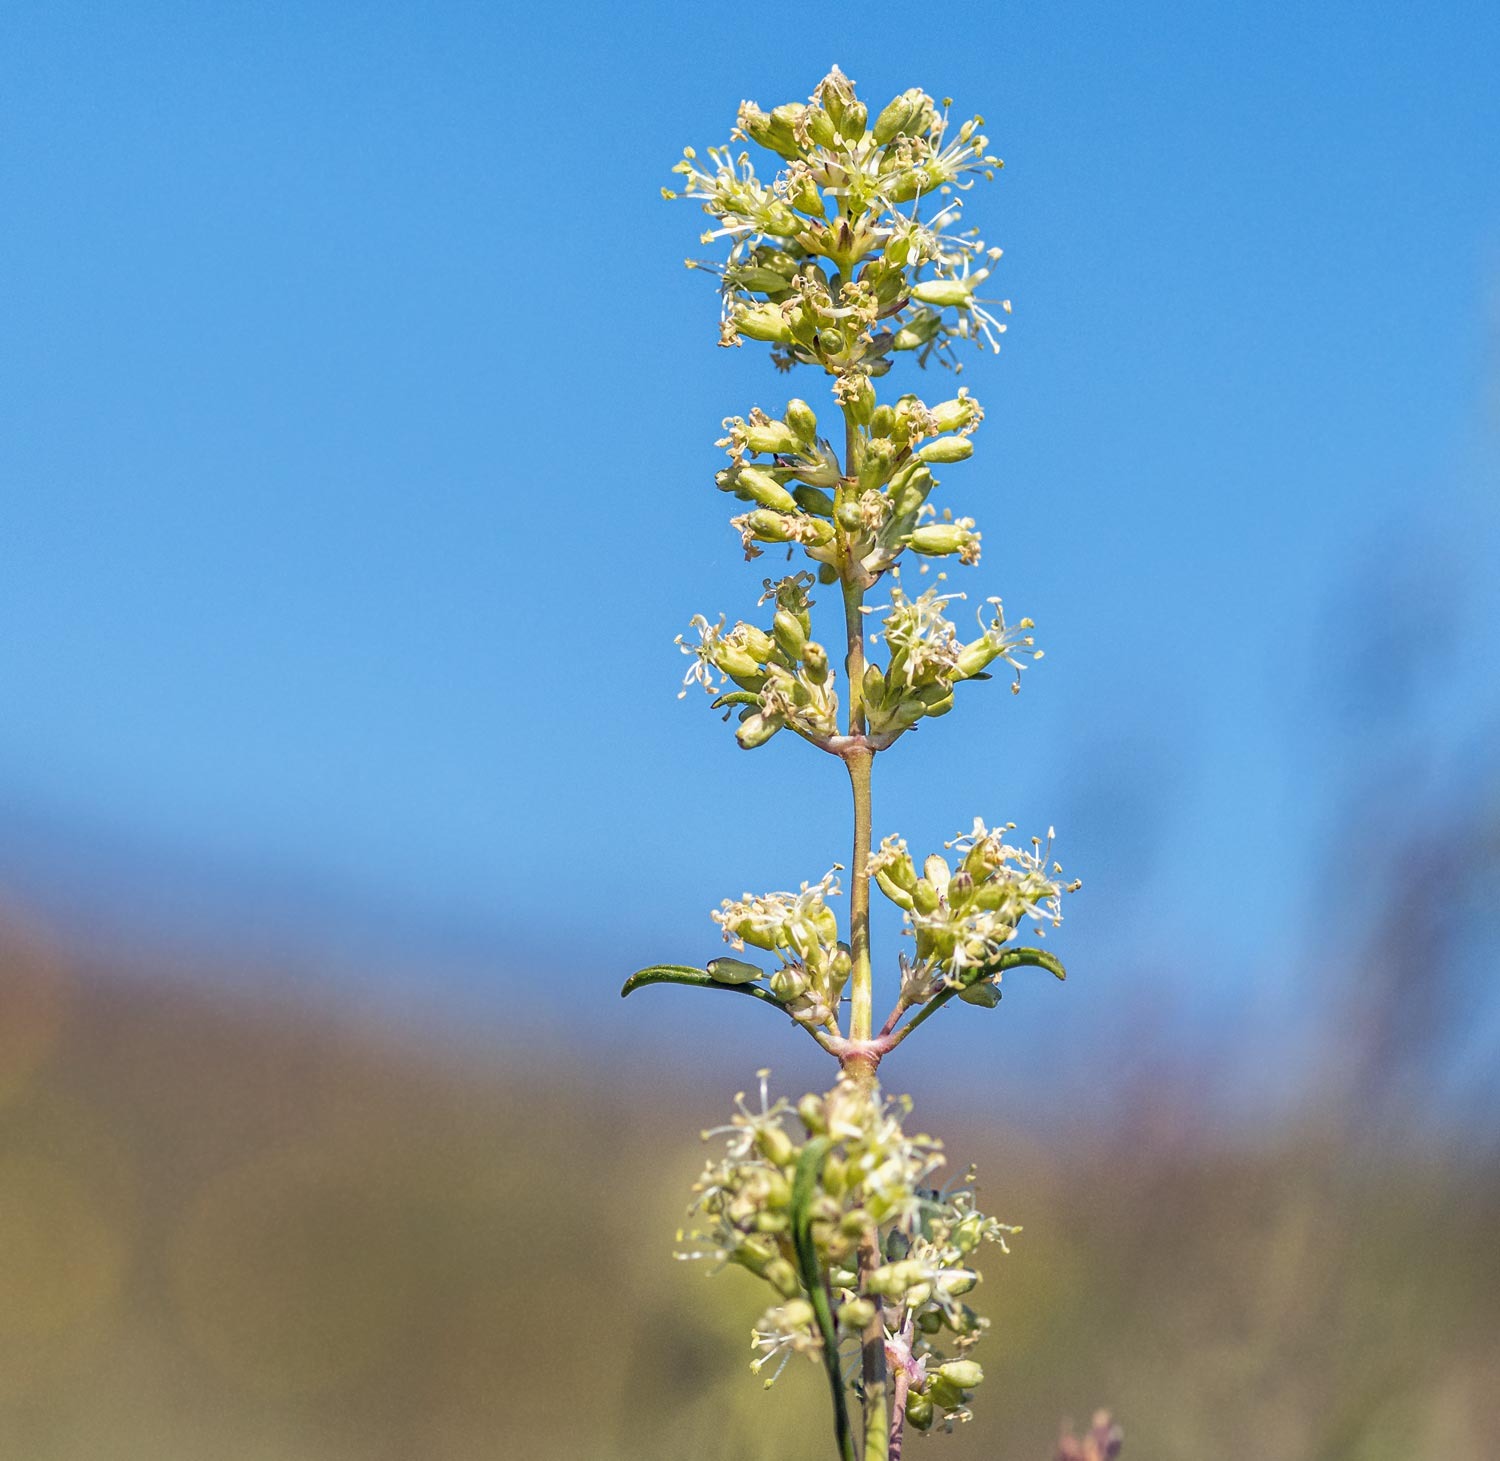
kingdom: Plantae
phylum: Tracheophyta
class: Magnoliopsida
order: Caryophyllales
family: Caryophyllaceae
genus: Silene
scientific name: Silene otites
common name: Klit-limurt
